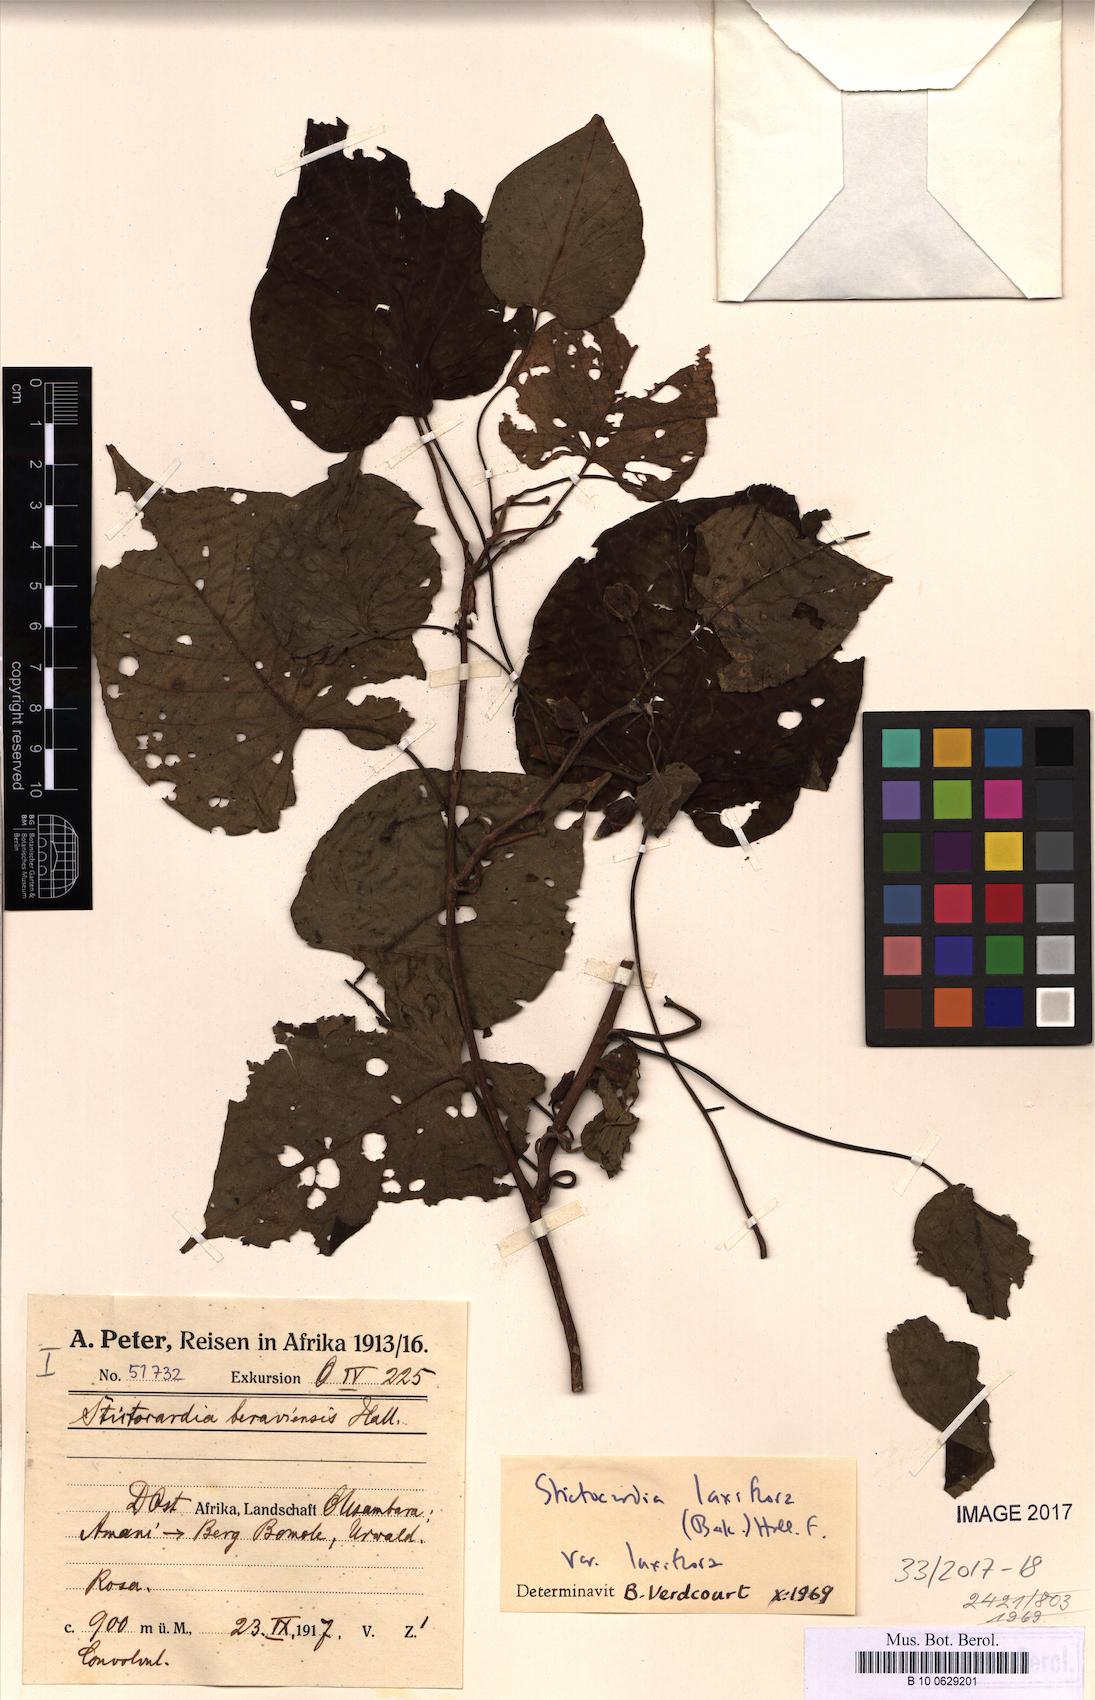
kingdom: Plantae
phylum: Tracheophyta
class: Magnoliopsida
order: Solanales
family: Convolvulaceae
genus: Stictocardia
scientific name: Stictocardia laxiflora
